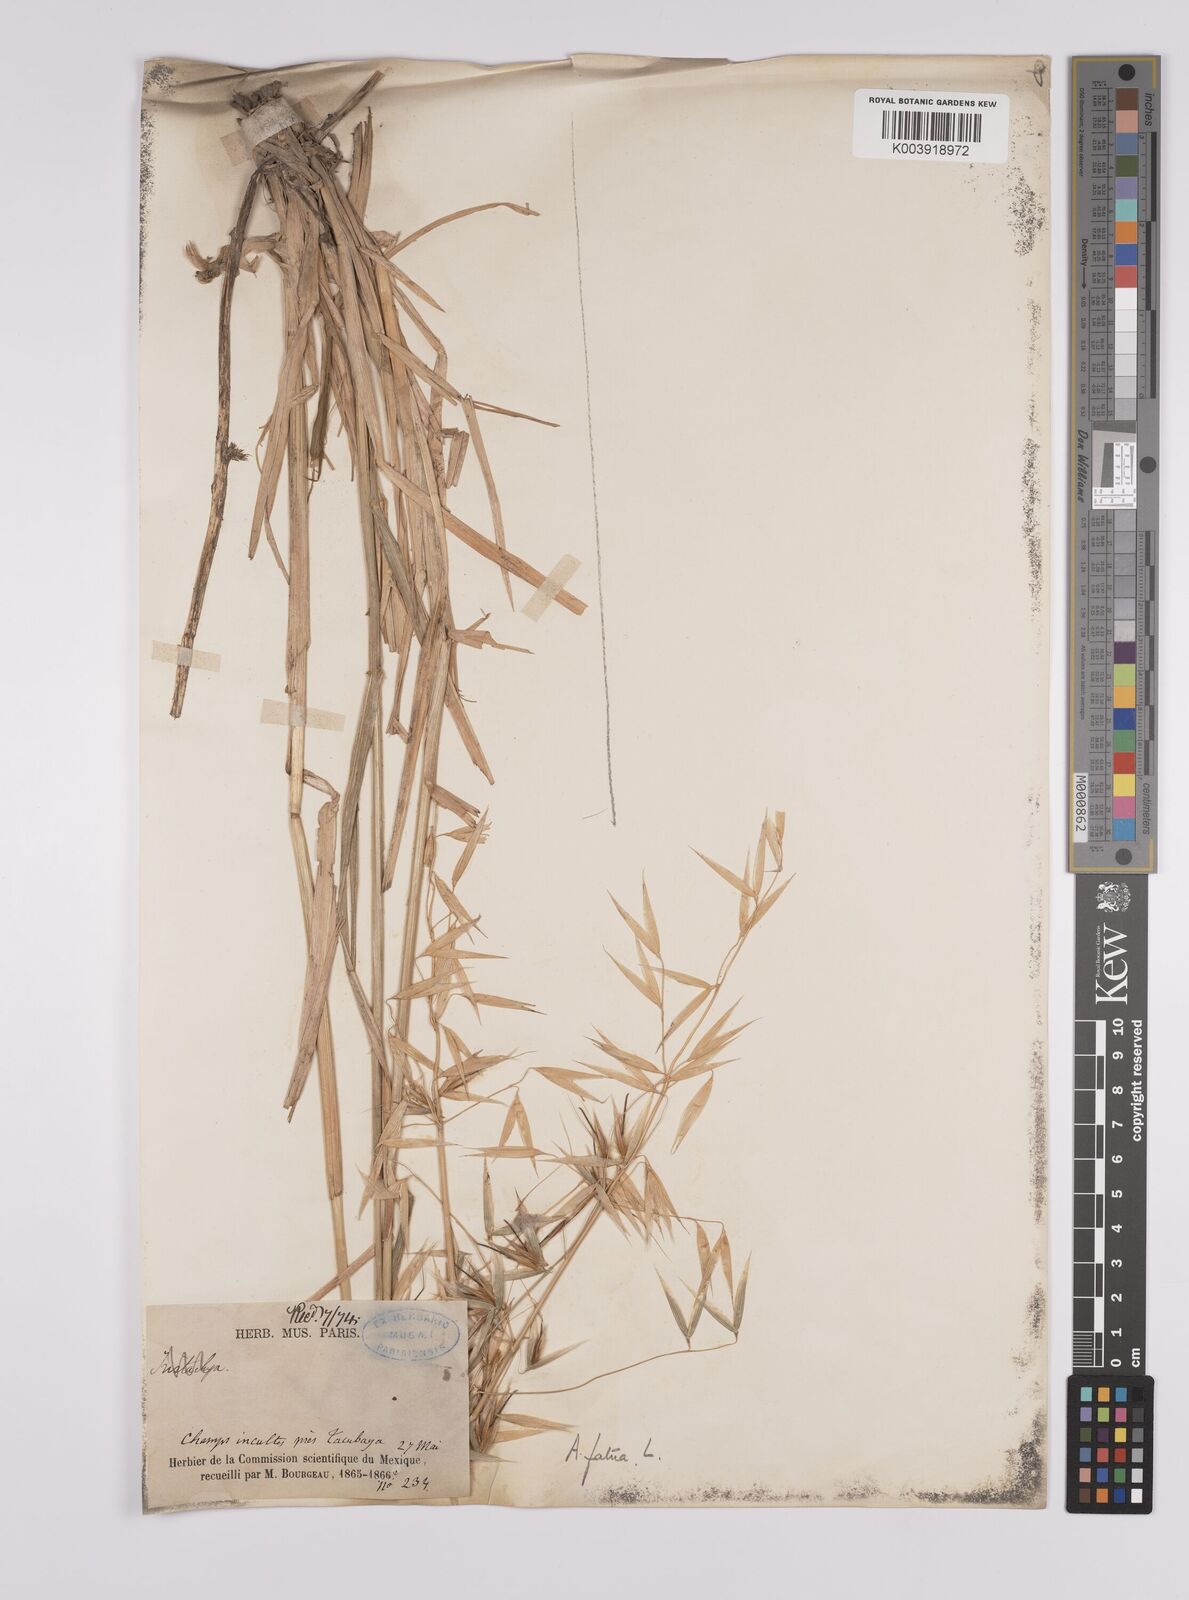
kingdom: Plantae
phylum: Tracheophyta
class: Liliopsida
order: Poales
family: Poaceae
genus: Avena
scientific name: Avena fatua
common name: Wild oat
